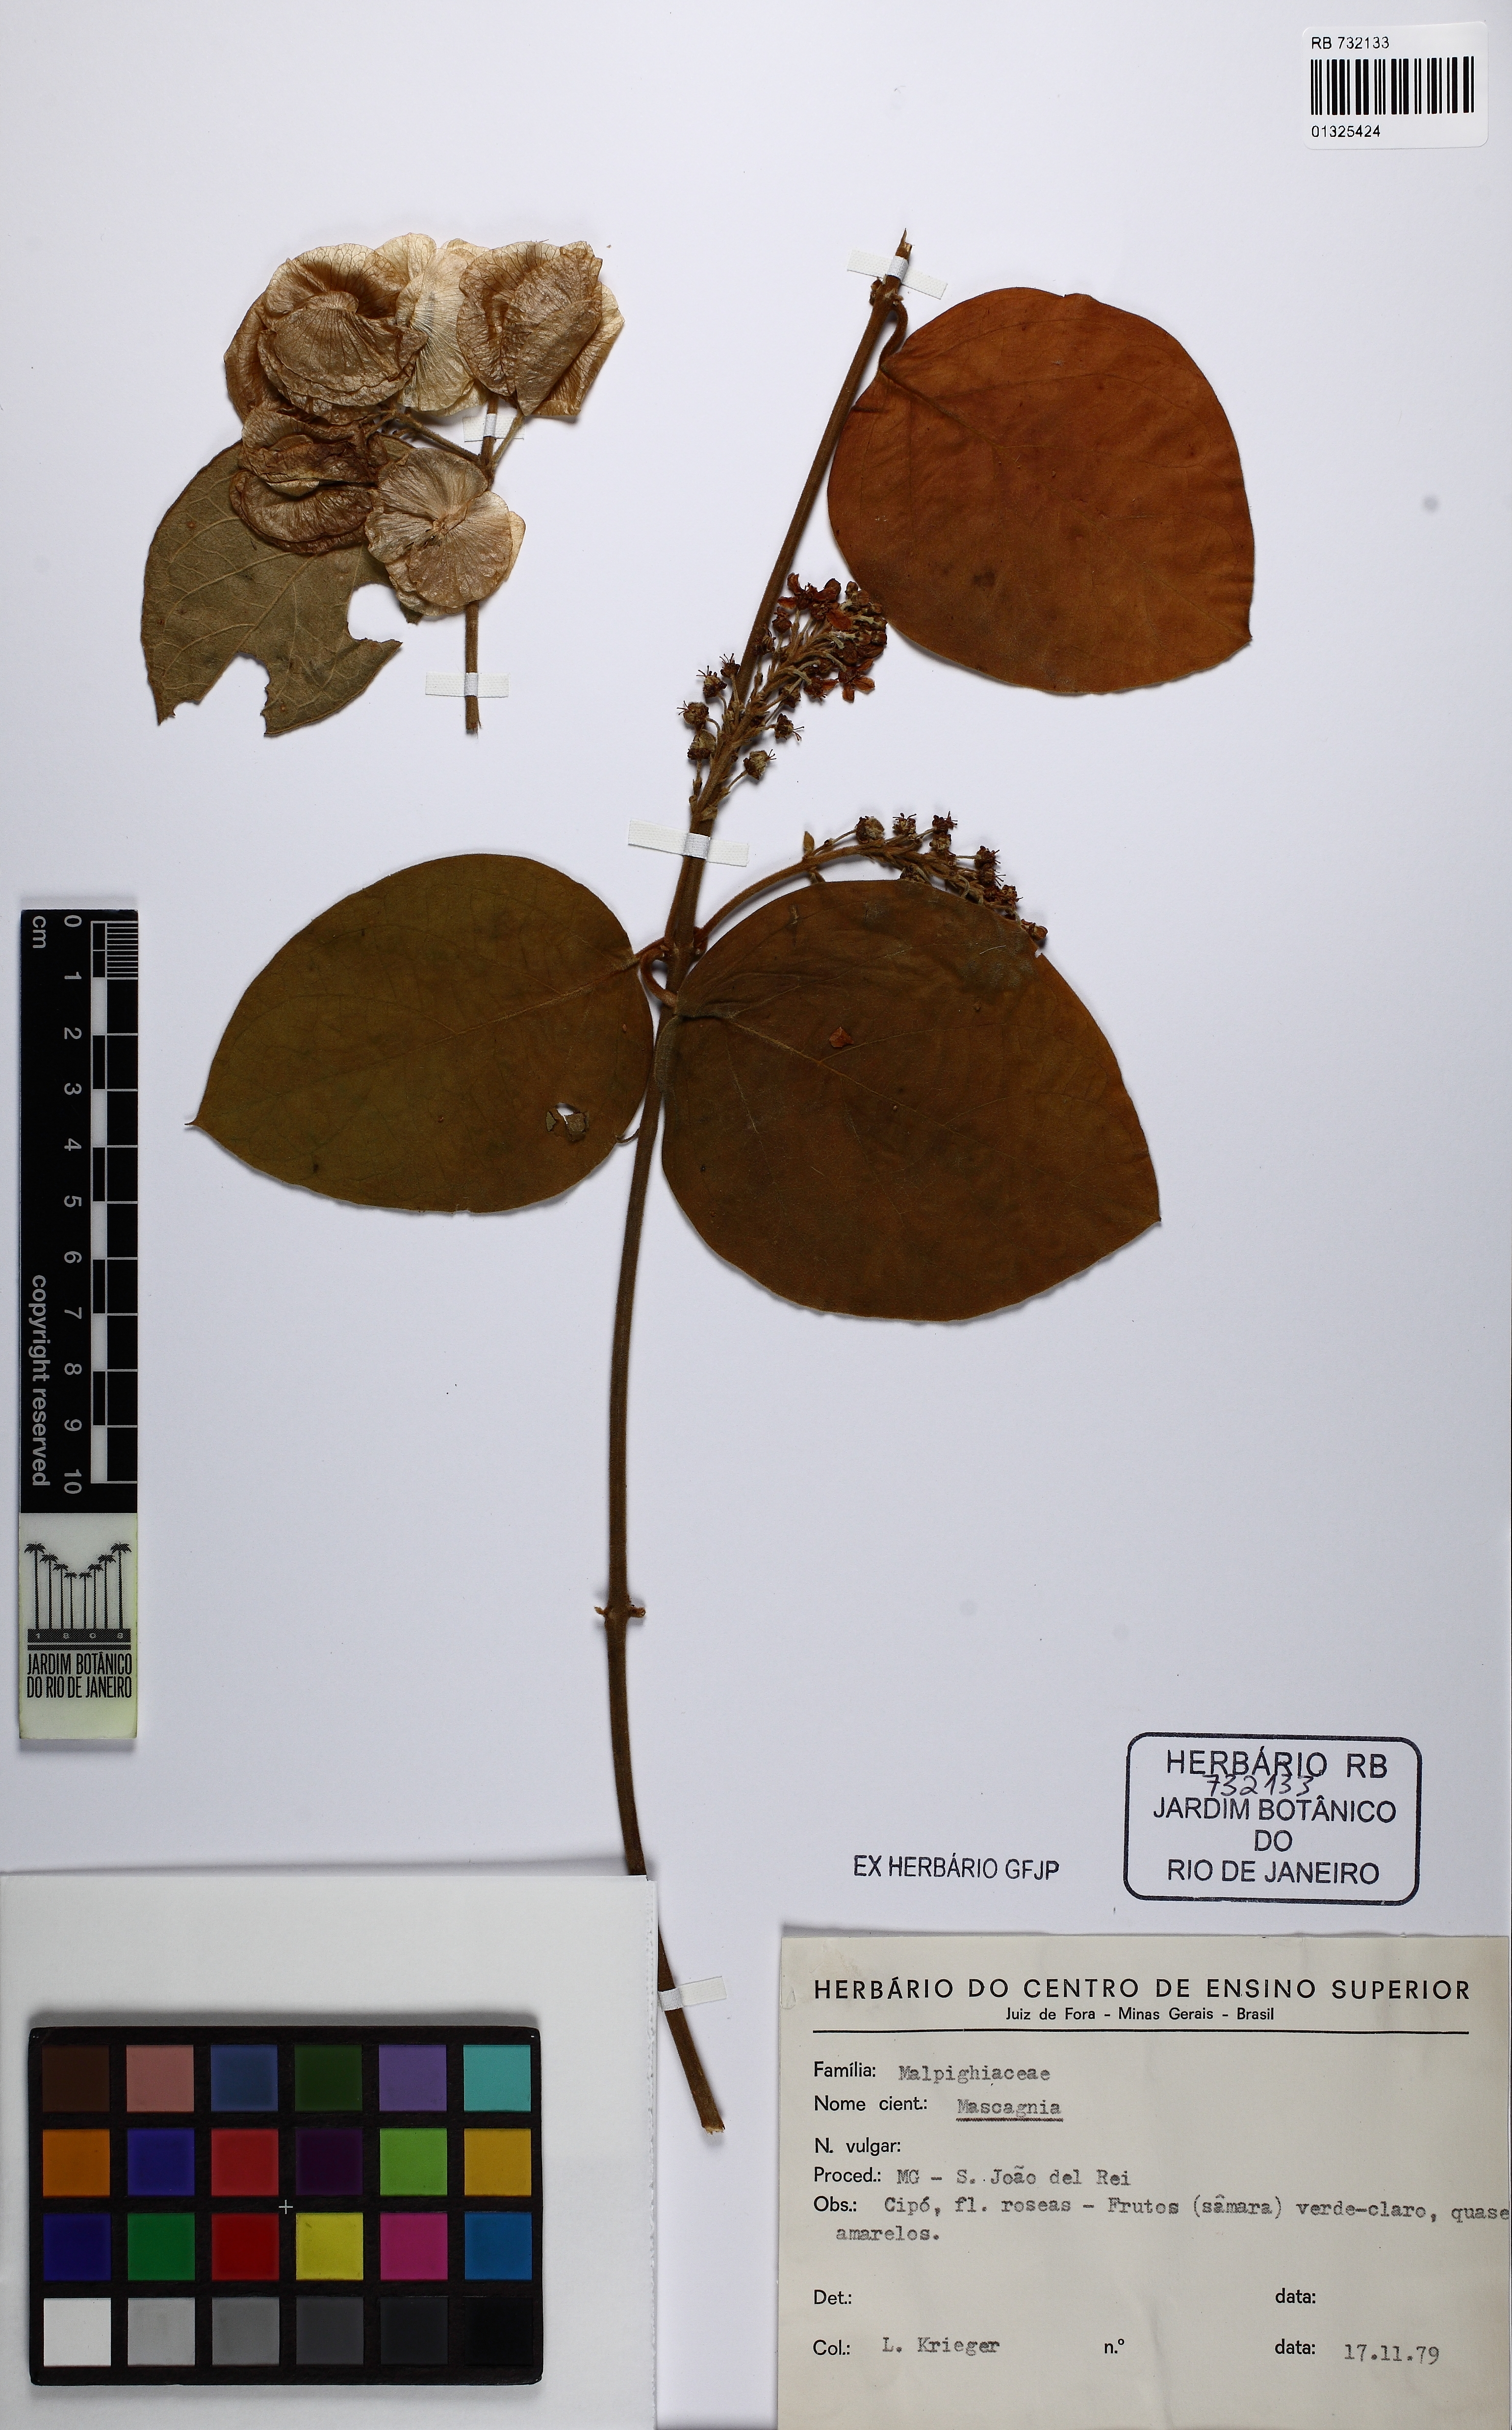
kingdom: Plantae
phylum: Tracheophyta
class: Magnoliopsida
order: Malpighiales
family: Malpighiaceae
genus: Mascagnia
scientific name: Mascagnia
